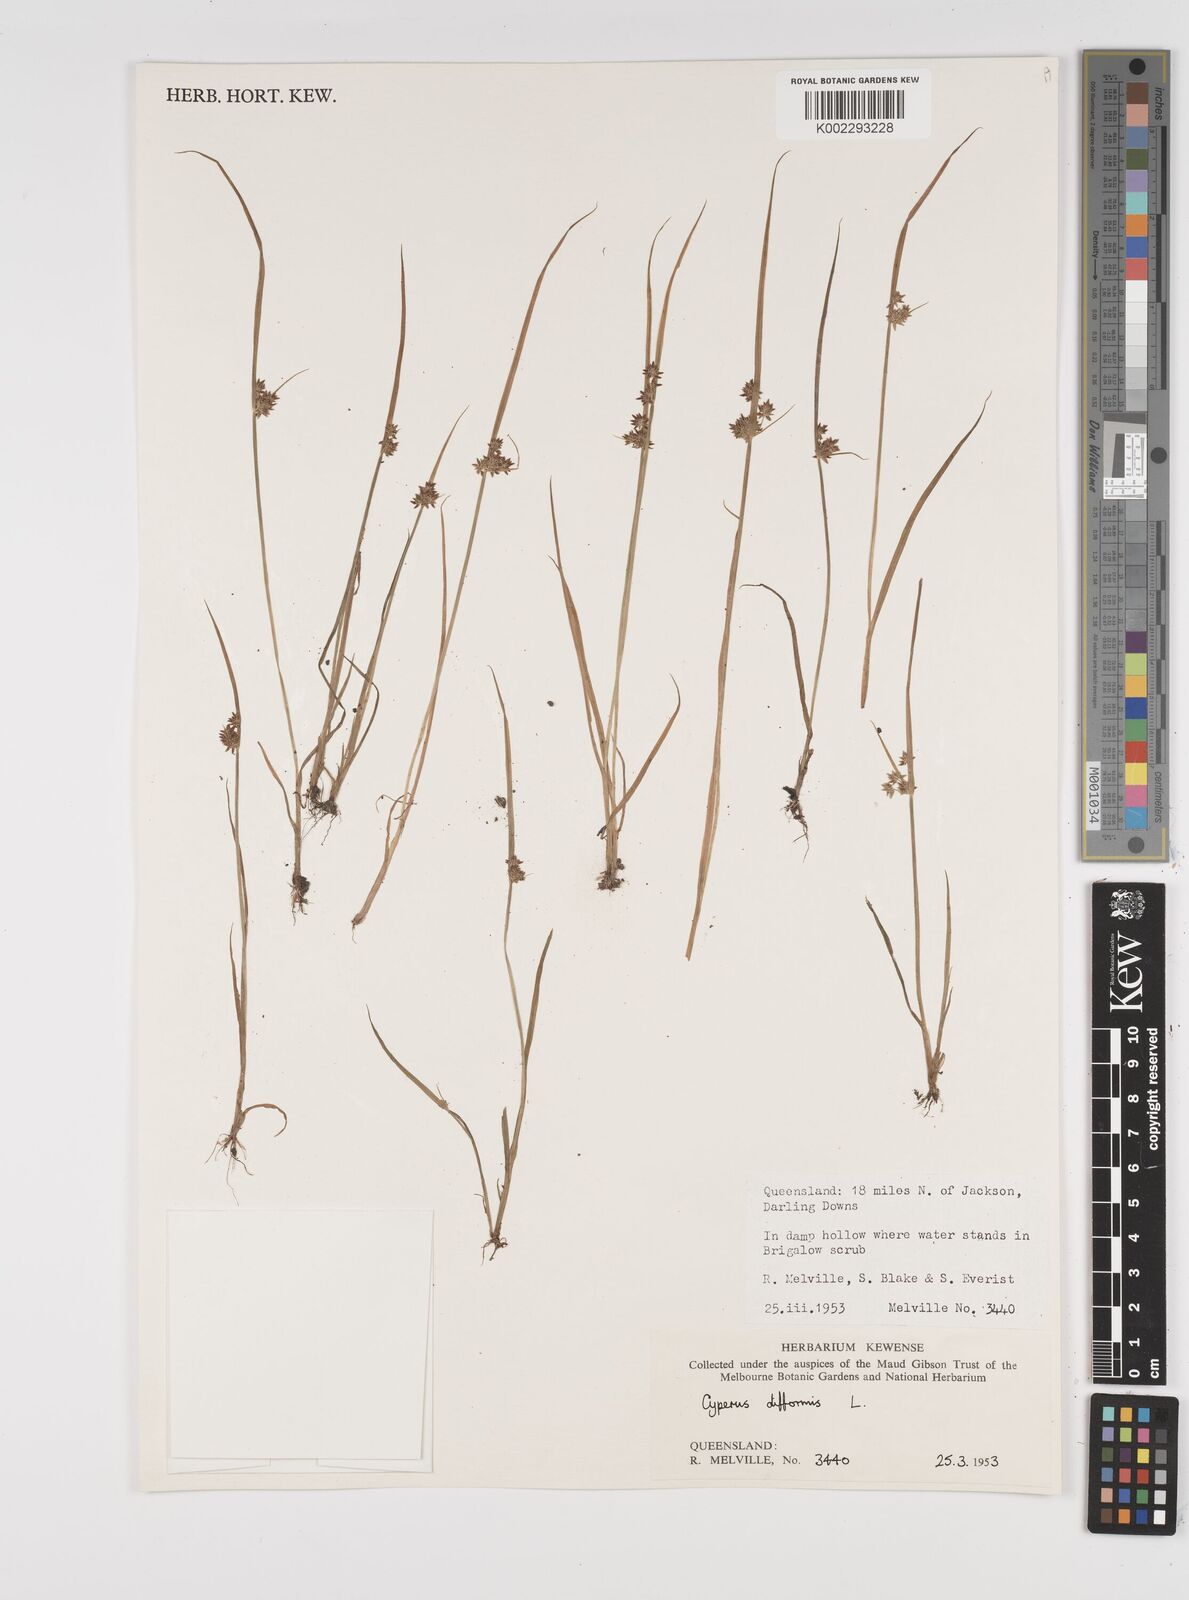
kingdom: Plantae
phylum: Tracheophyta
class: Liliopsida
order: Poales
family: Cyperaceae
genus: Cyperus
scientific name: Cyperus difformis
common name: Variable flatsedge
